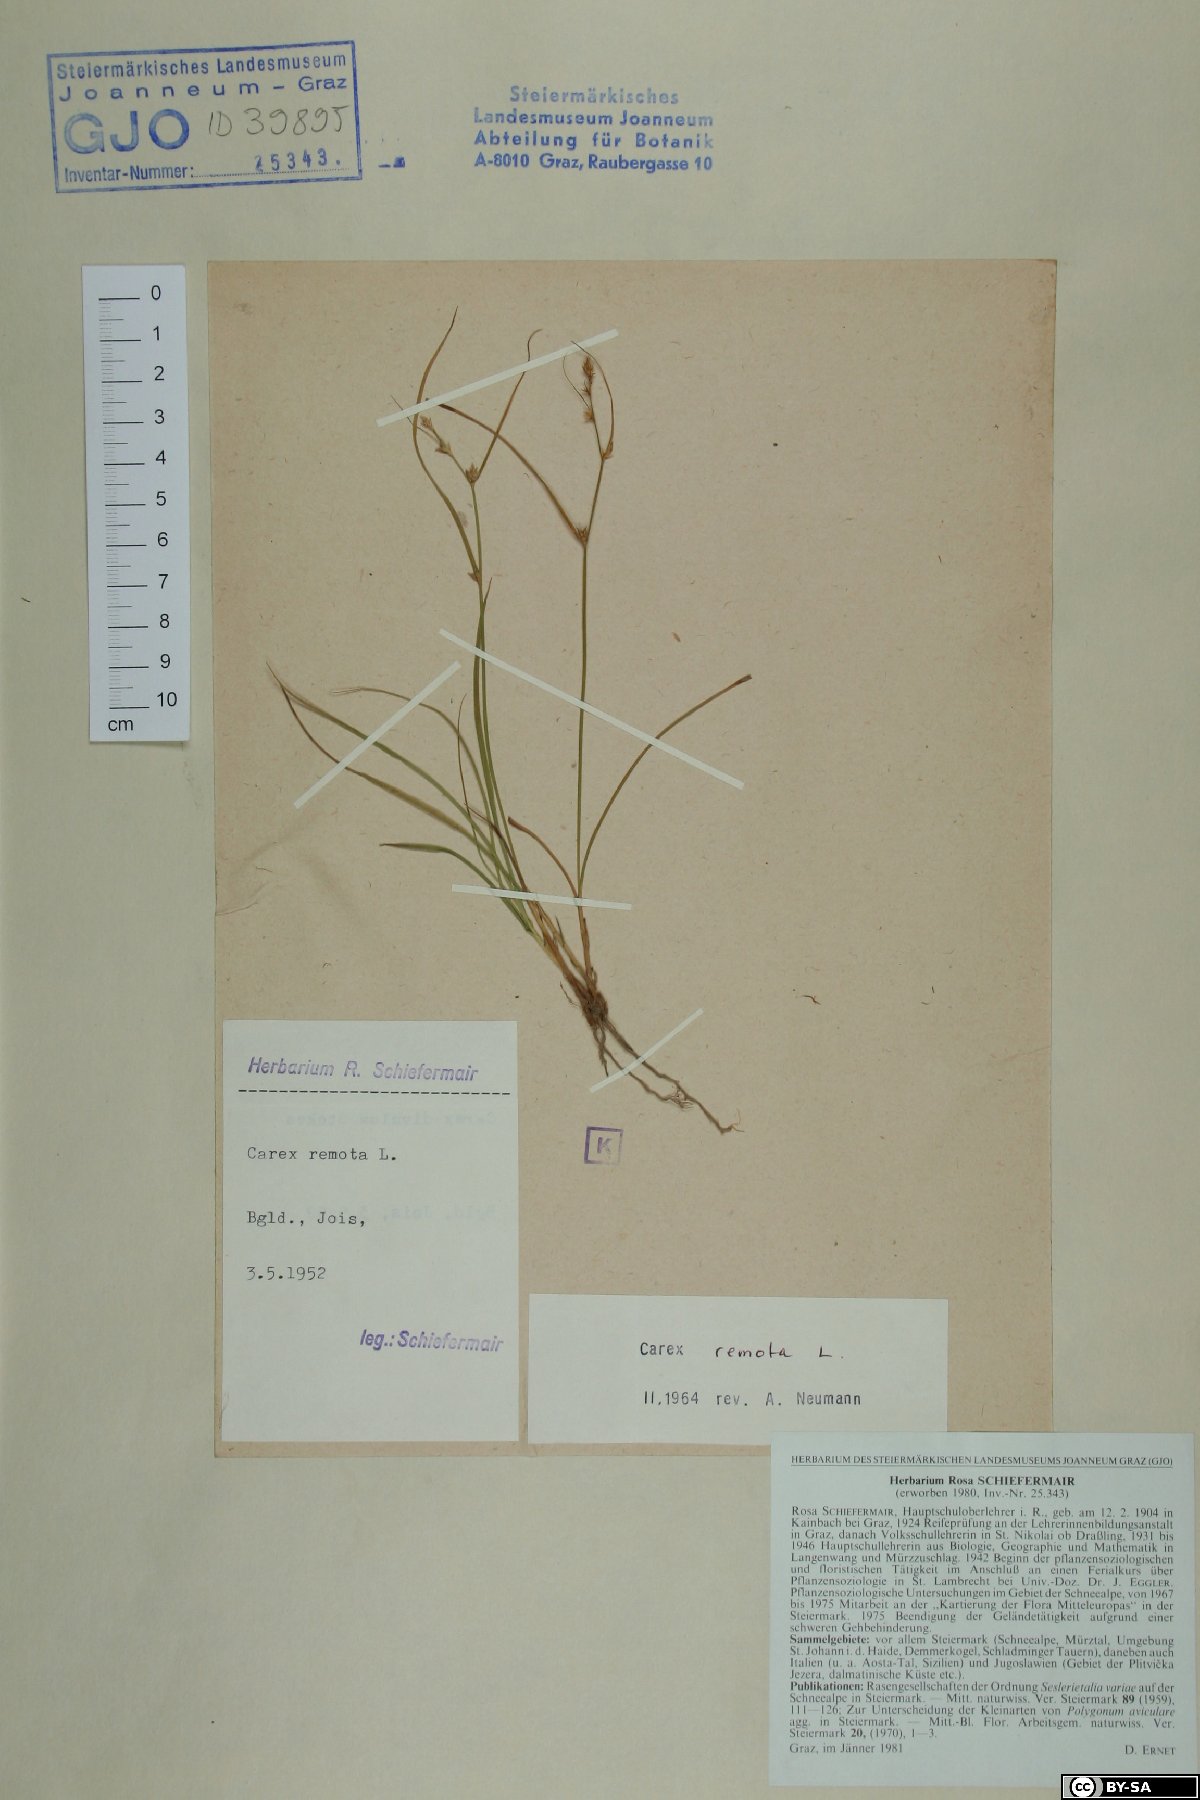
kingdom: Plantae
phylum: Tracheophyta
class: Liliopsida
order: Poales
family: Cyperaceae
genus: Carex
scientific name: Carex remota
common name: Remote sedge
